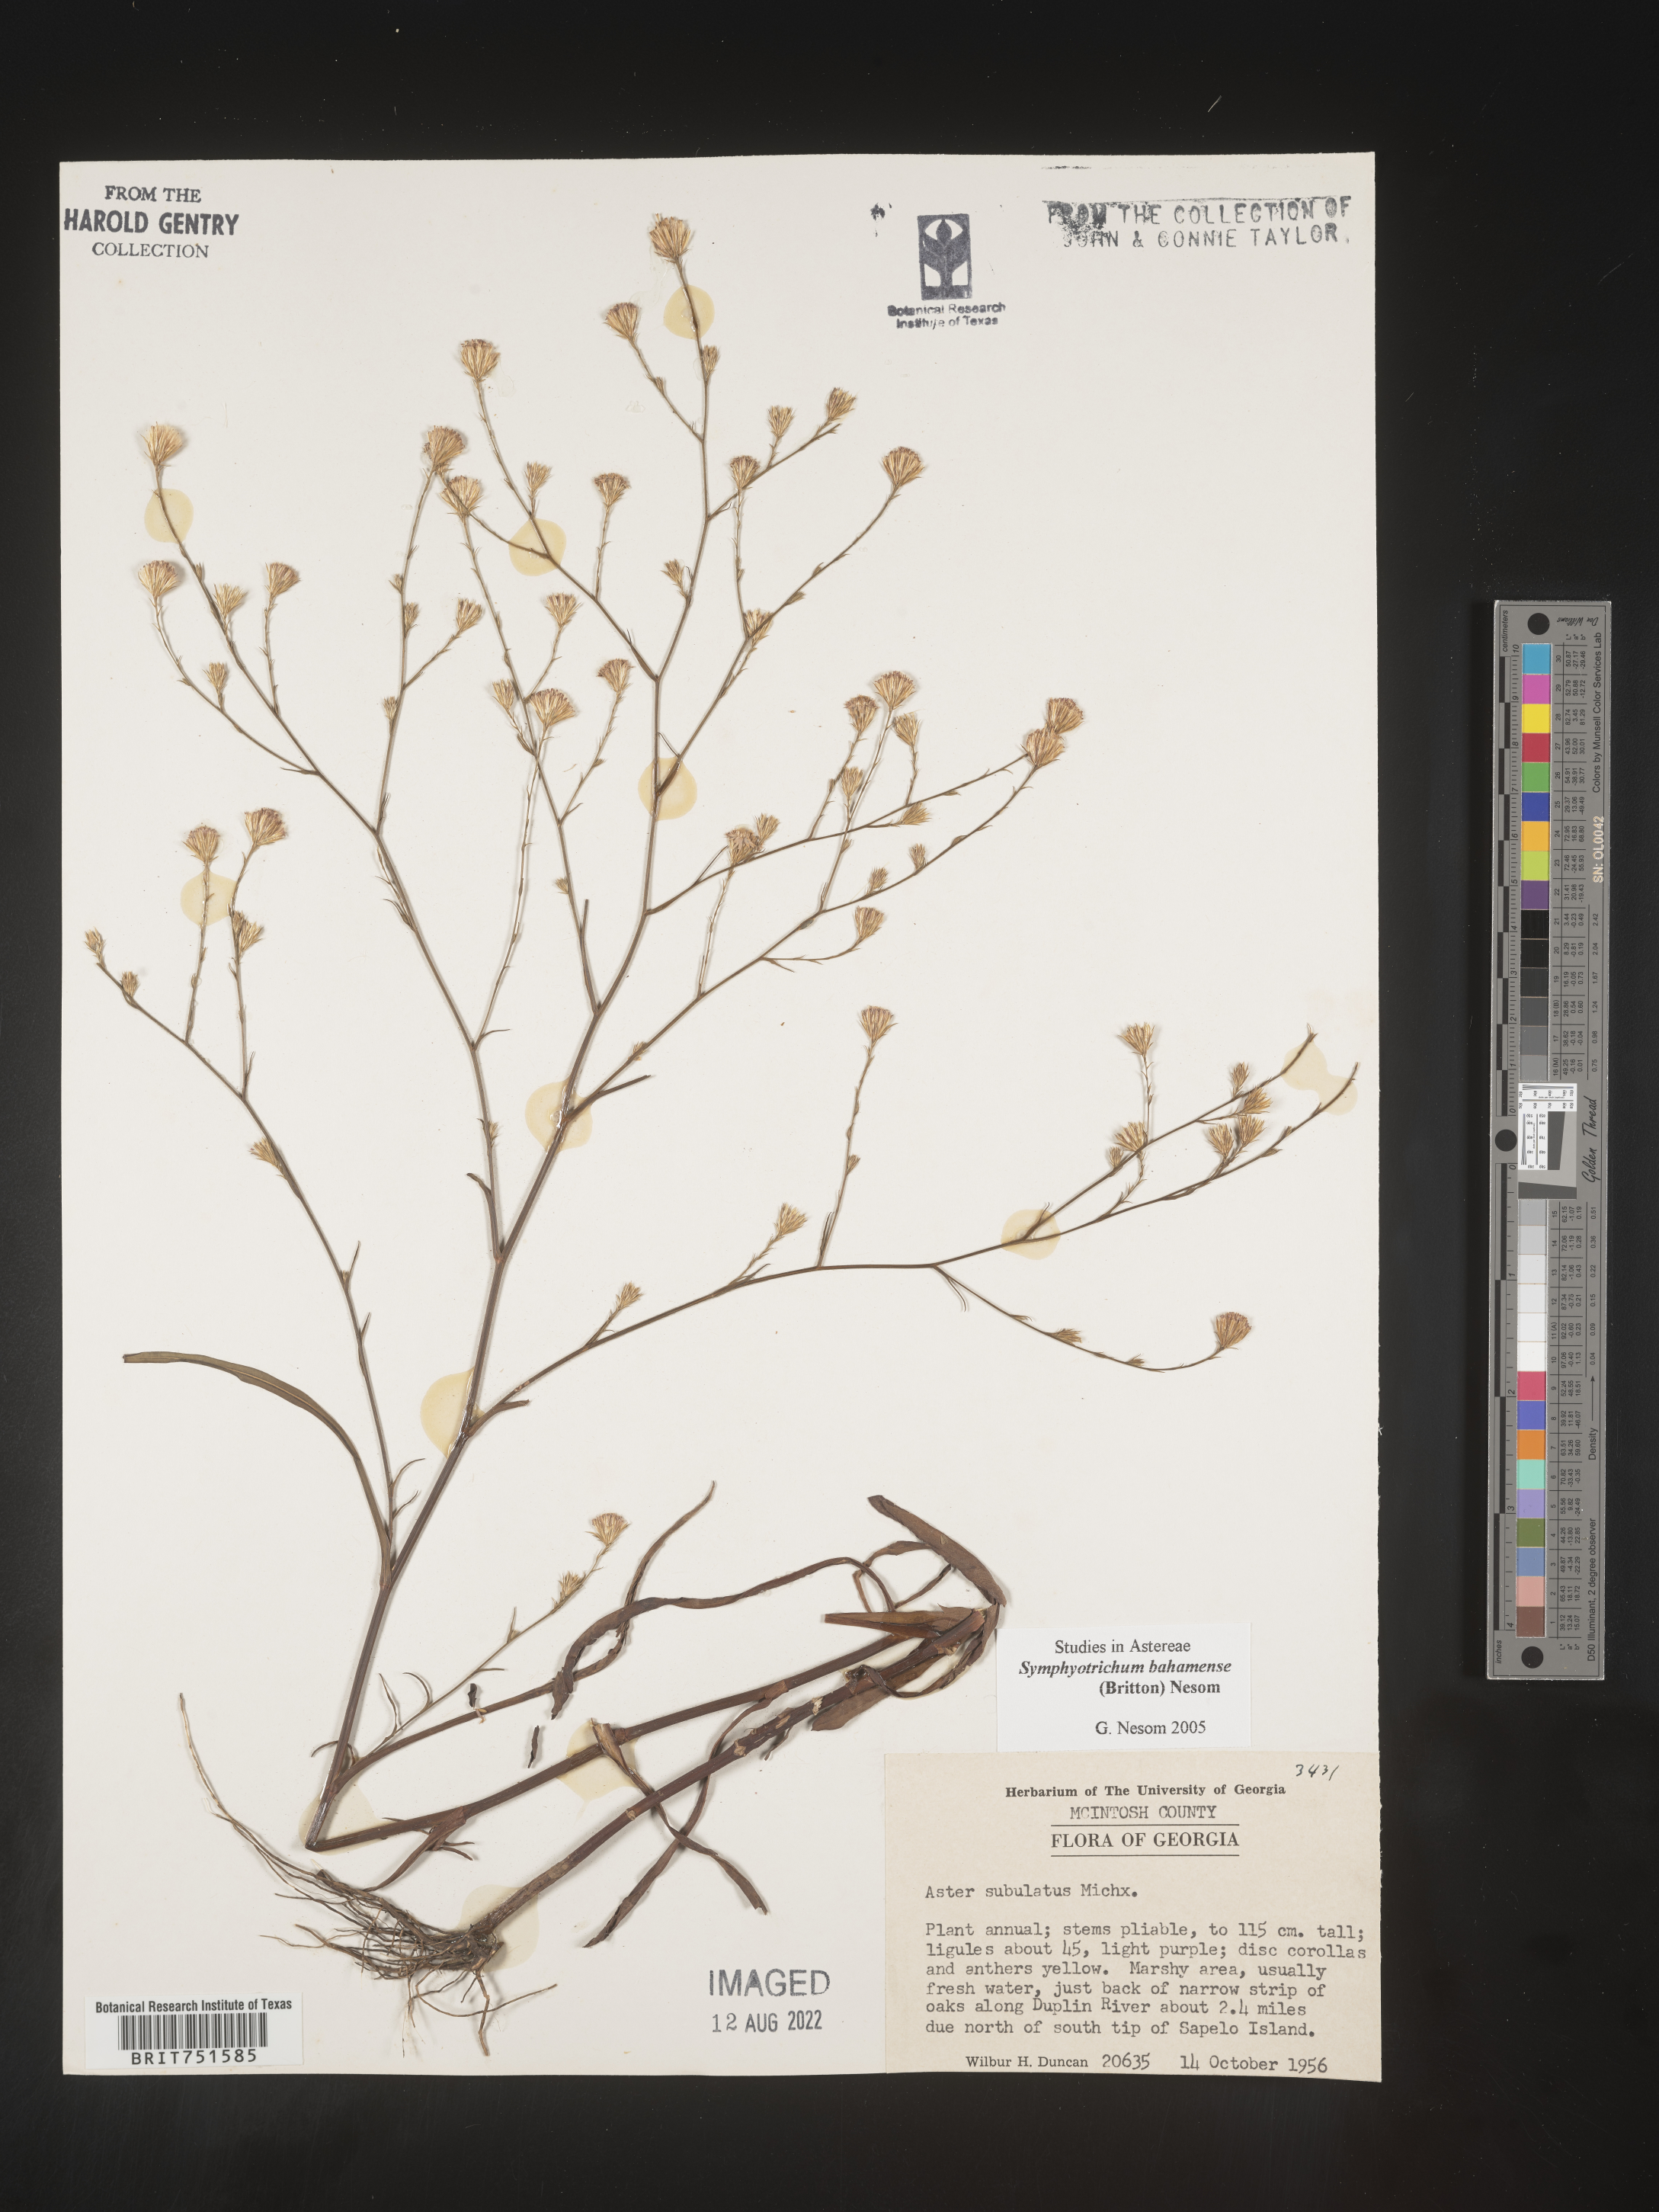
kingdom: Plantae
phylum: Tracheophyta
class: Magnoliopsida
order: Asterales
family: Asteraceae
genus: Symphyotrichum
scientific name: Symphyotrichum subulatum
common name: Annual saltmarsh aster
